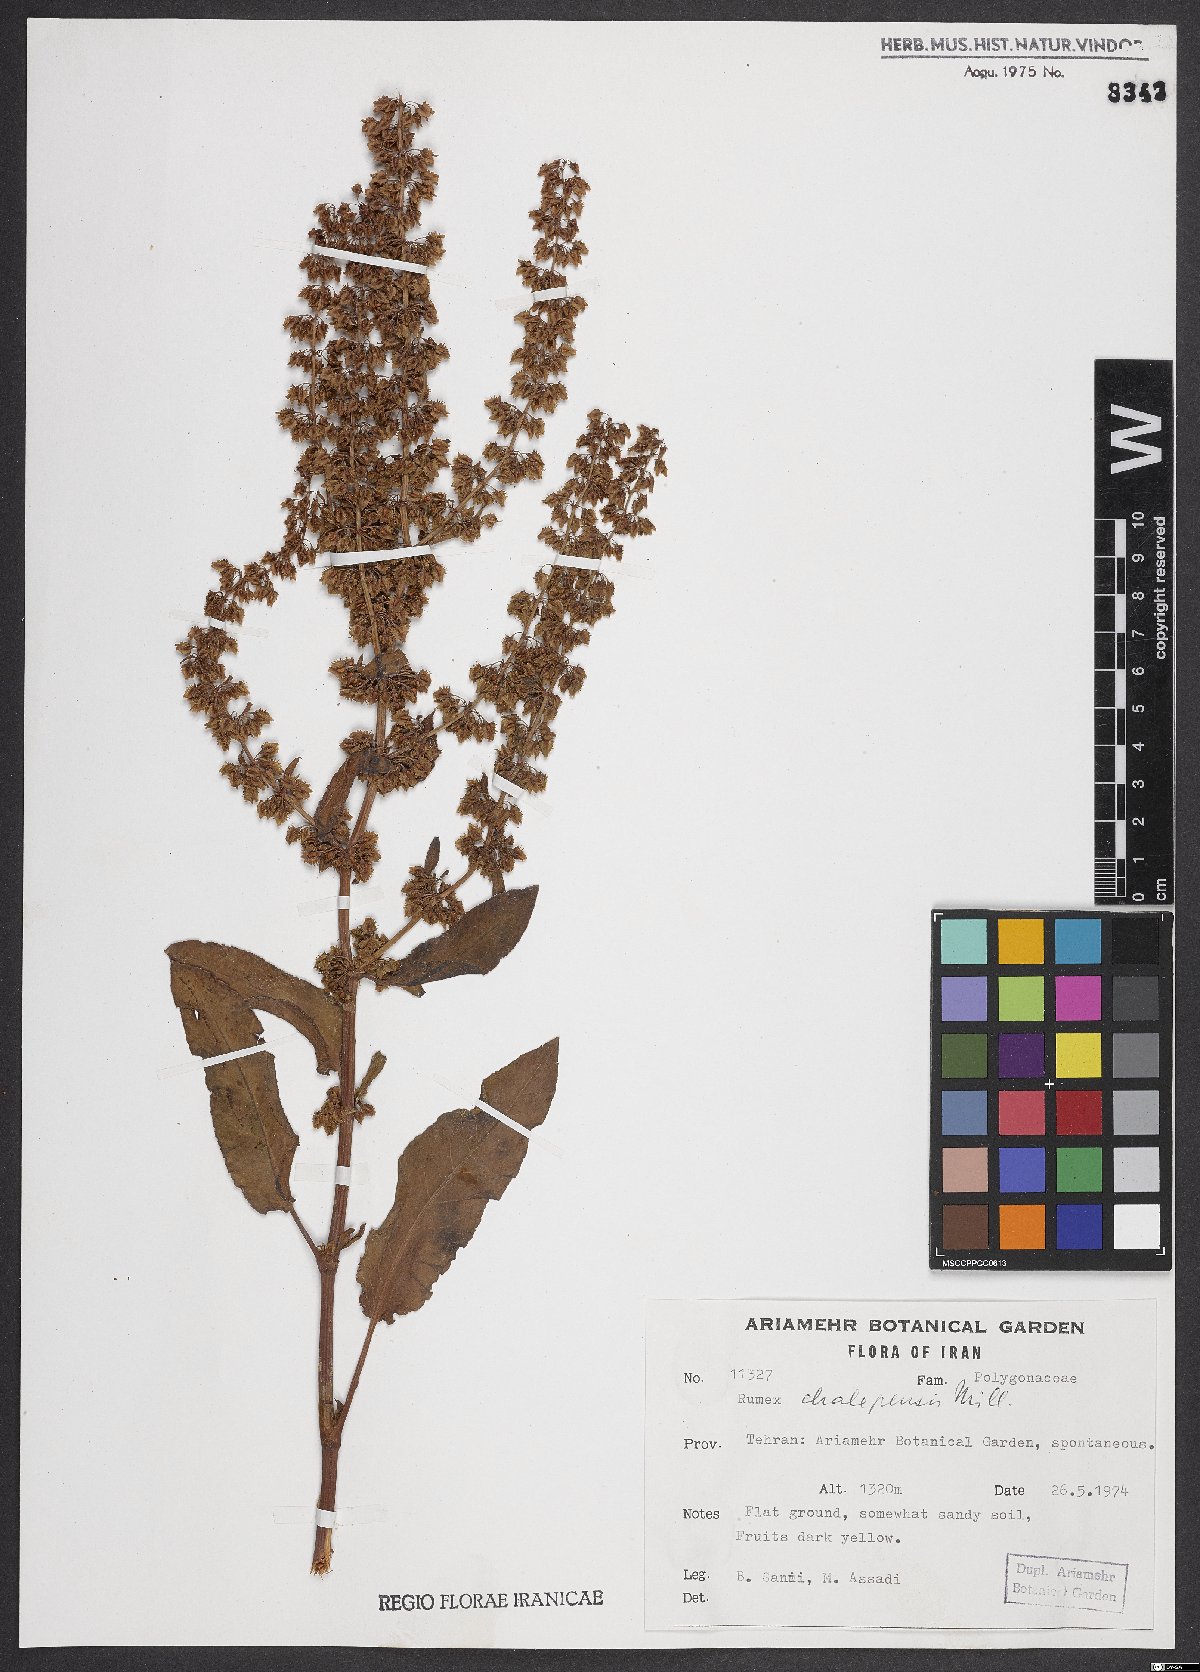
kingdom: Plantae
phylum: Tracheophyta
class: Magnoliopsida
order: Caryophyllales
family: Polygonaceae
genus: Rumex
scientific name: Rumex chalepensis
